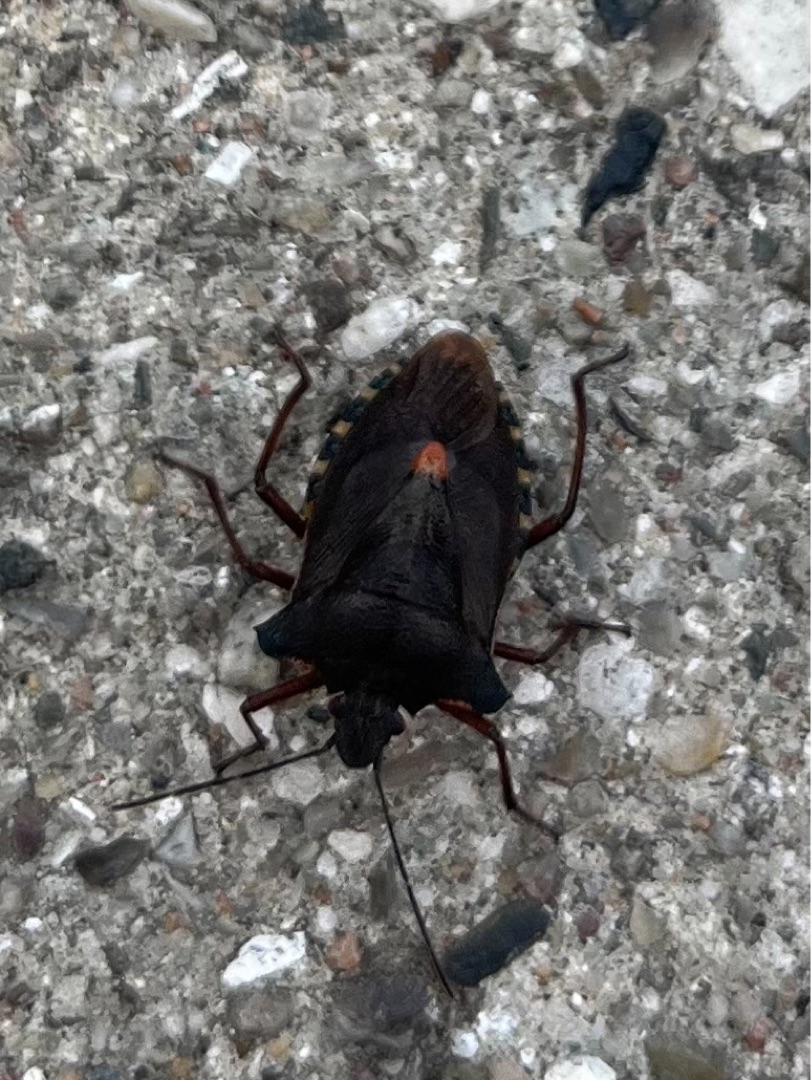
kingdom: Animalia
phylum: Arthropoda
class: Insecta
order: Hemiptera
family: Pentatomidae
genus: Pentatoma
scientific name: Pentatoma rufipes
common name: Rødbenet bredtæge
